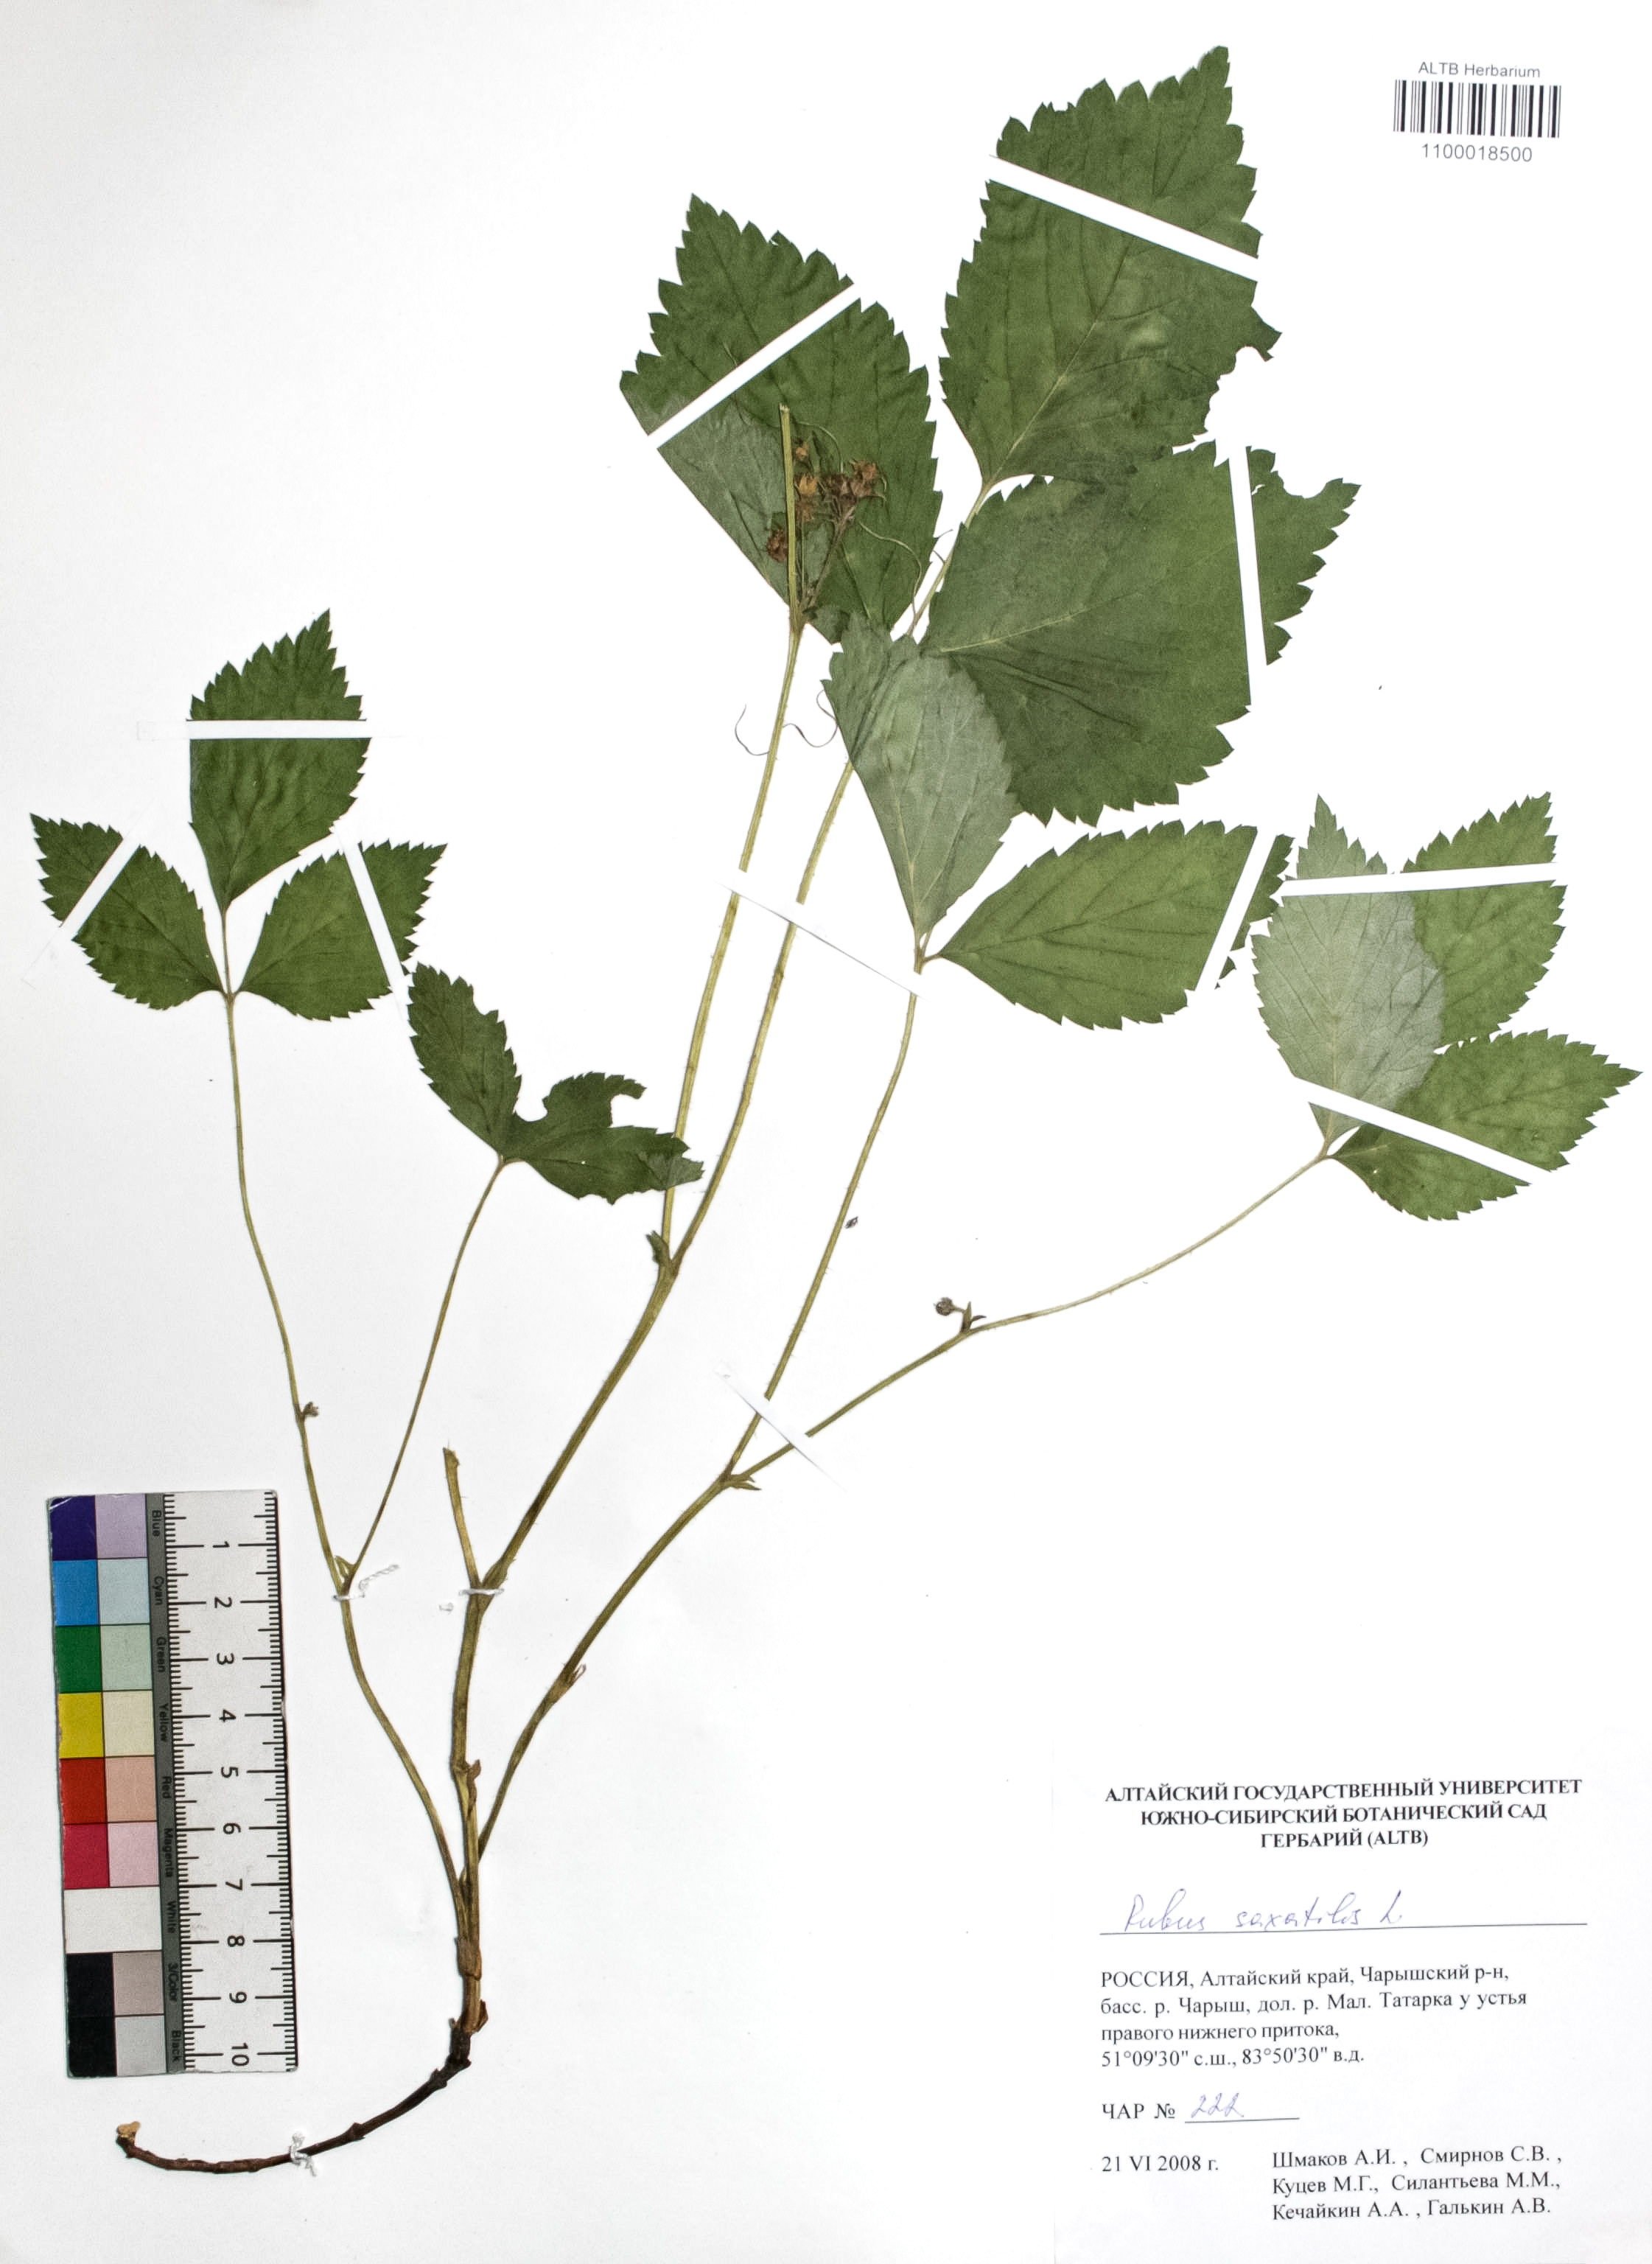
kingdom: Plantae
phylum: Tracheophyta
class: Magnoliopsida
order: Rosales
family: Rosaceae
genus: Rubus
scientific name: Rubus saxatilis
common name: Stone bramble
